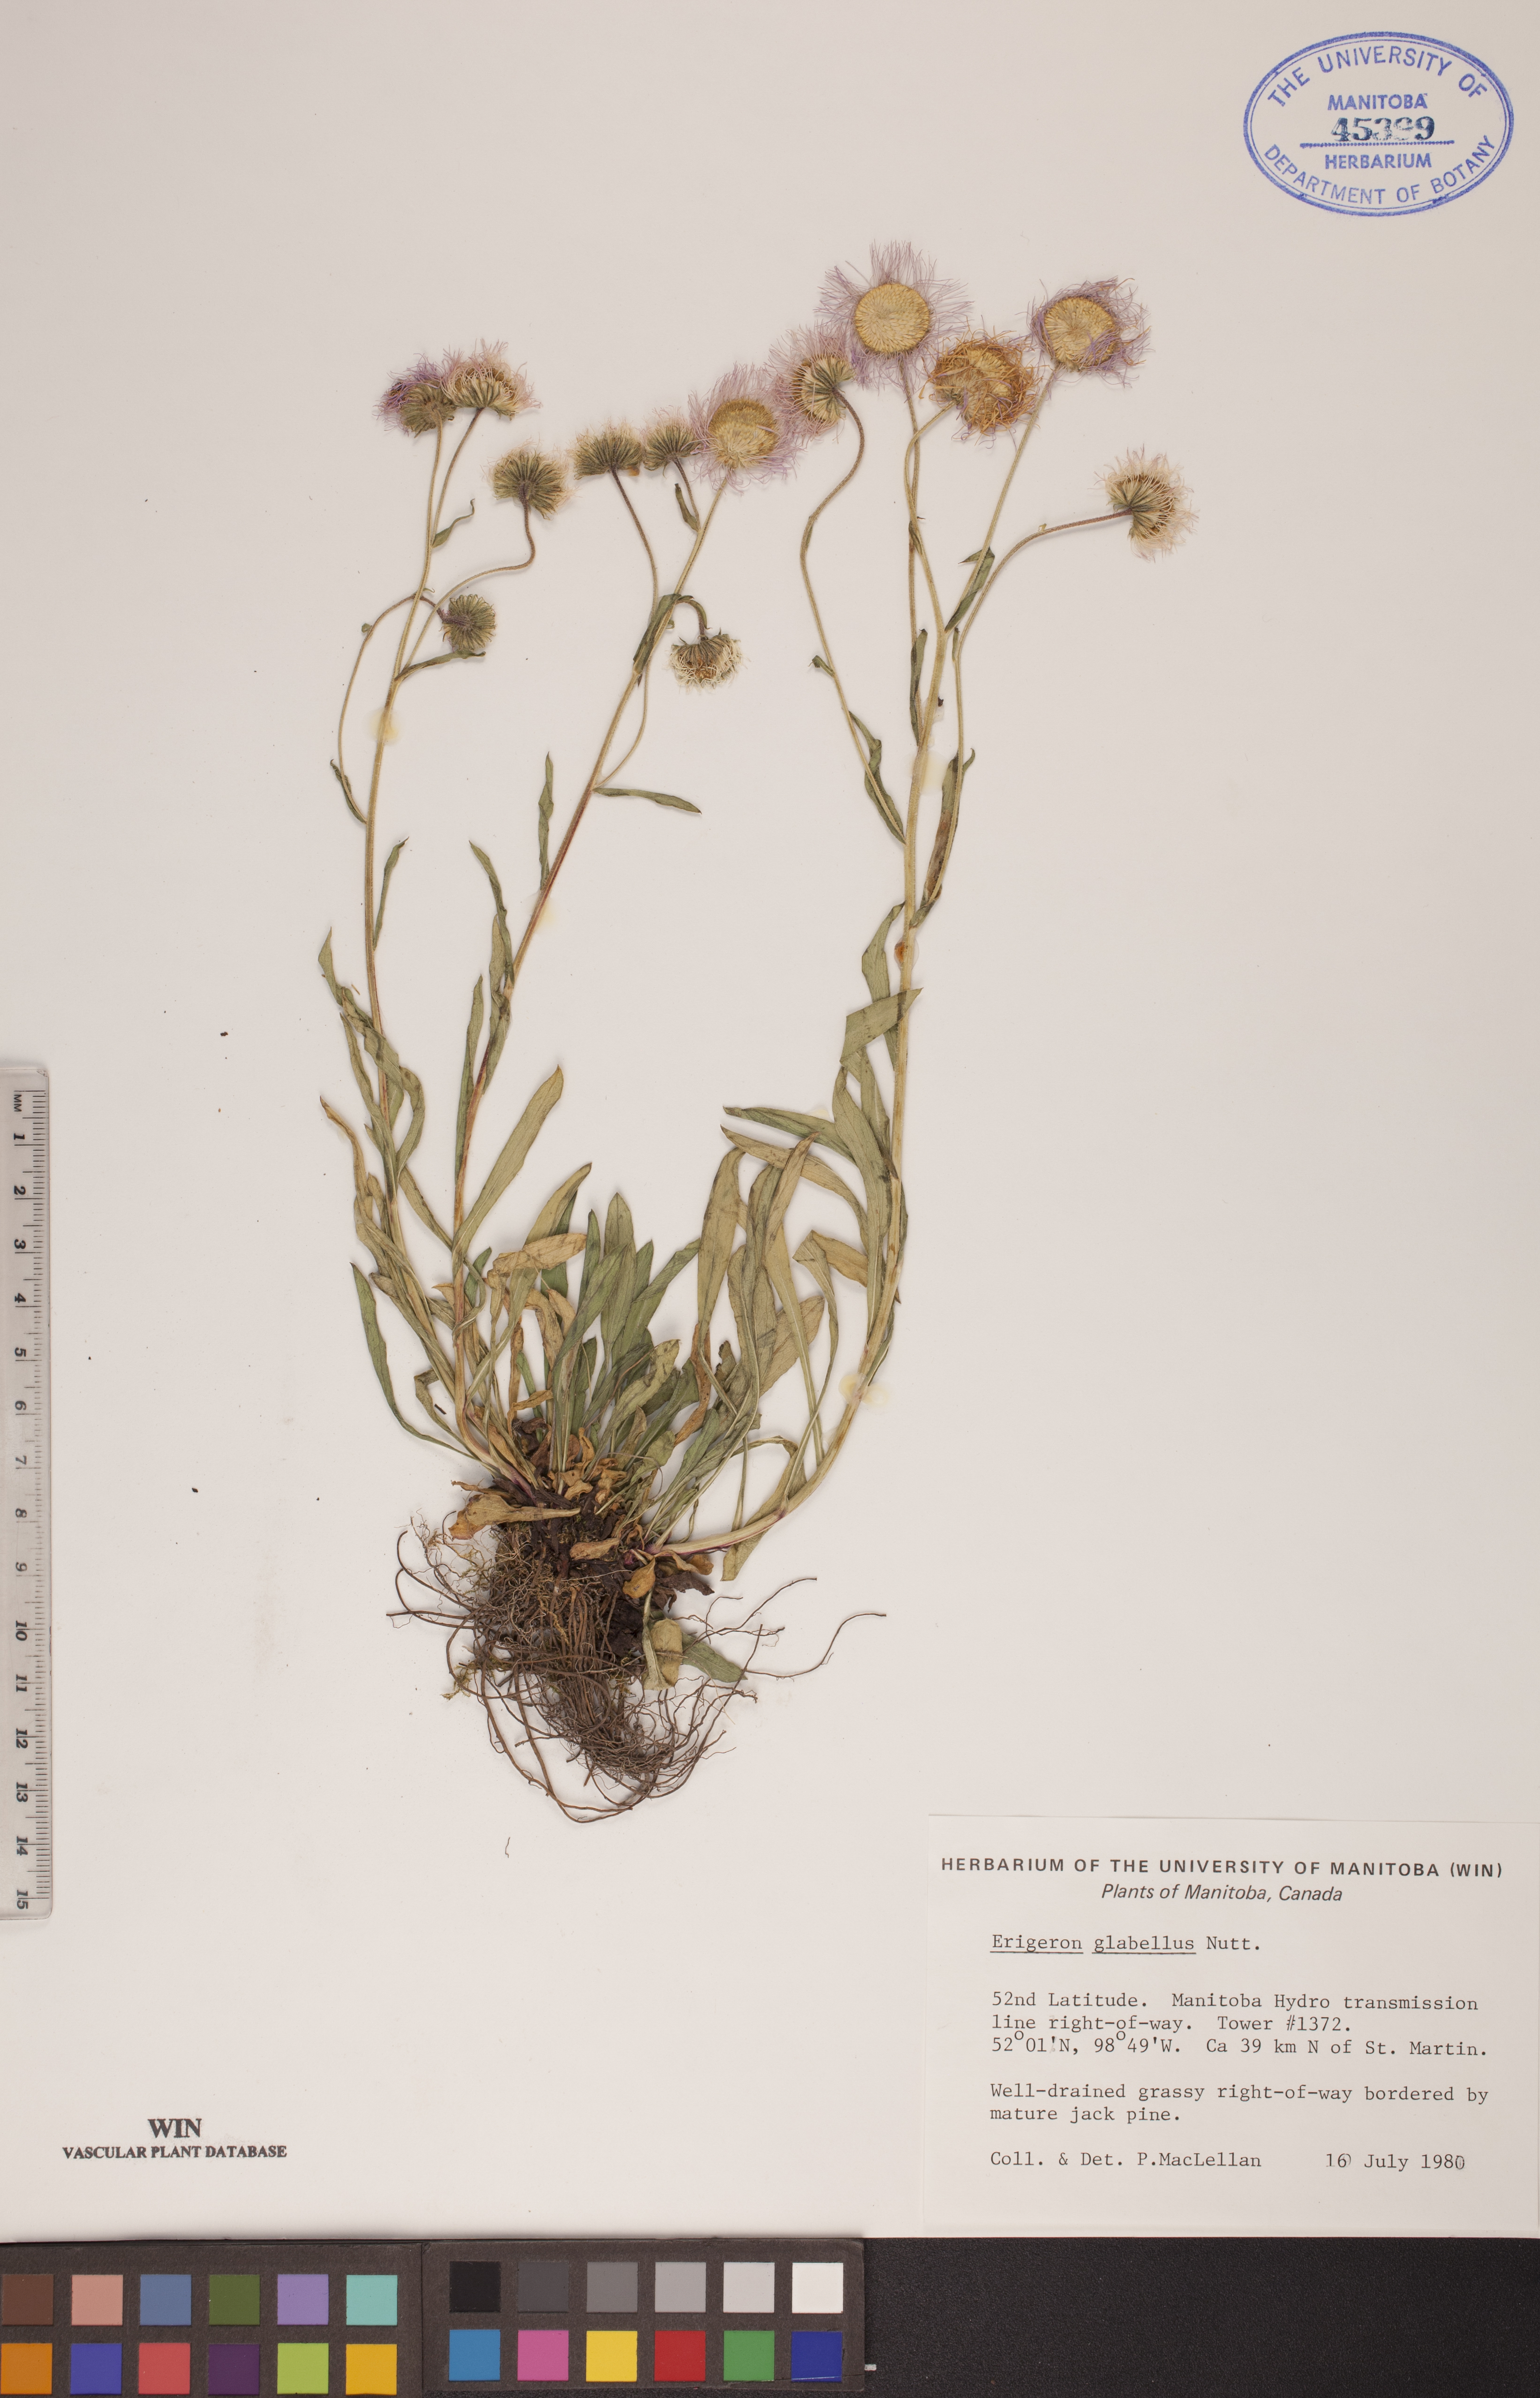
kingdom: Plantae
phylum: Tracheophyta
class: Magnoliopsida
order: Asterales
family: Asteraceae
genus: Erigeron
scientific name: Erigeron glabellus
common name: Smooth fleabane
